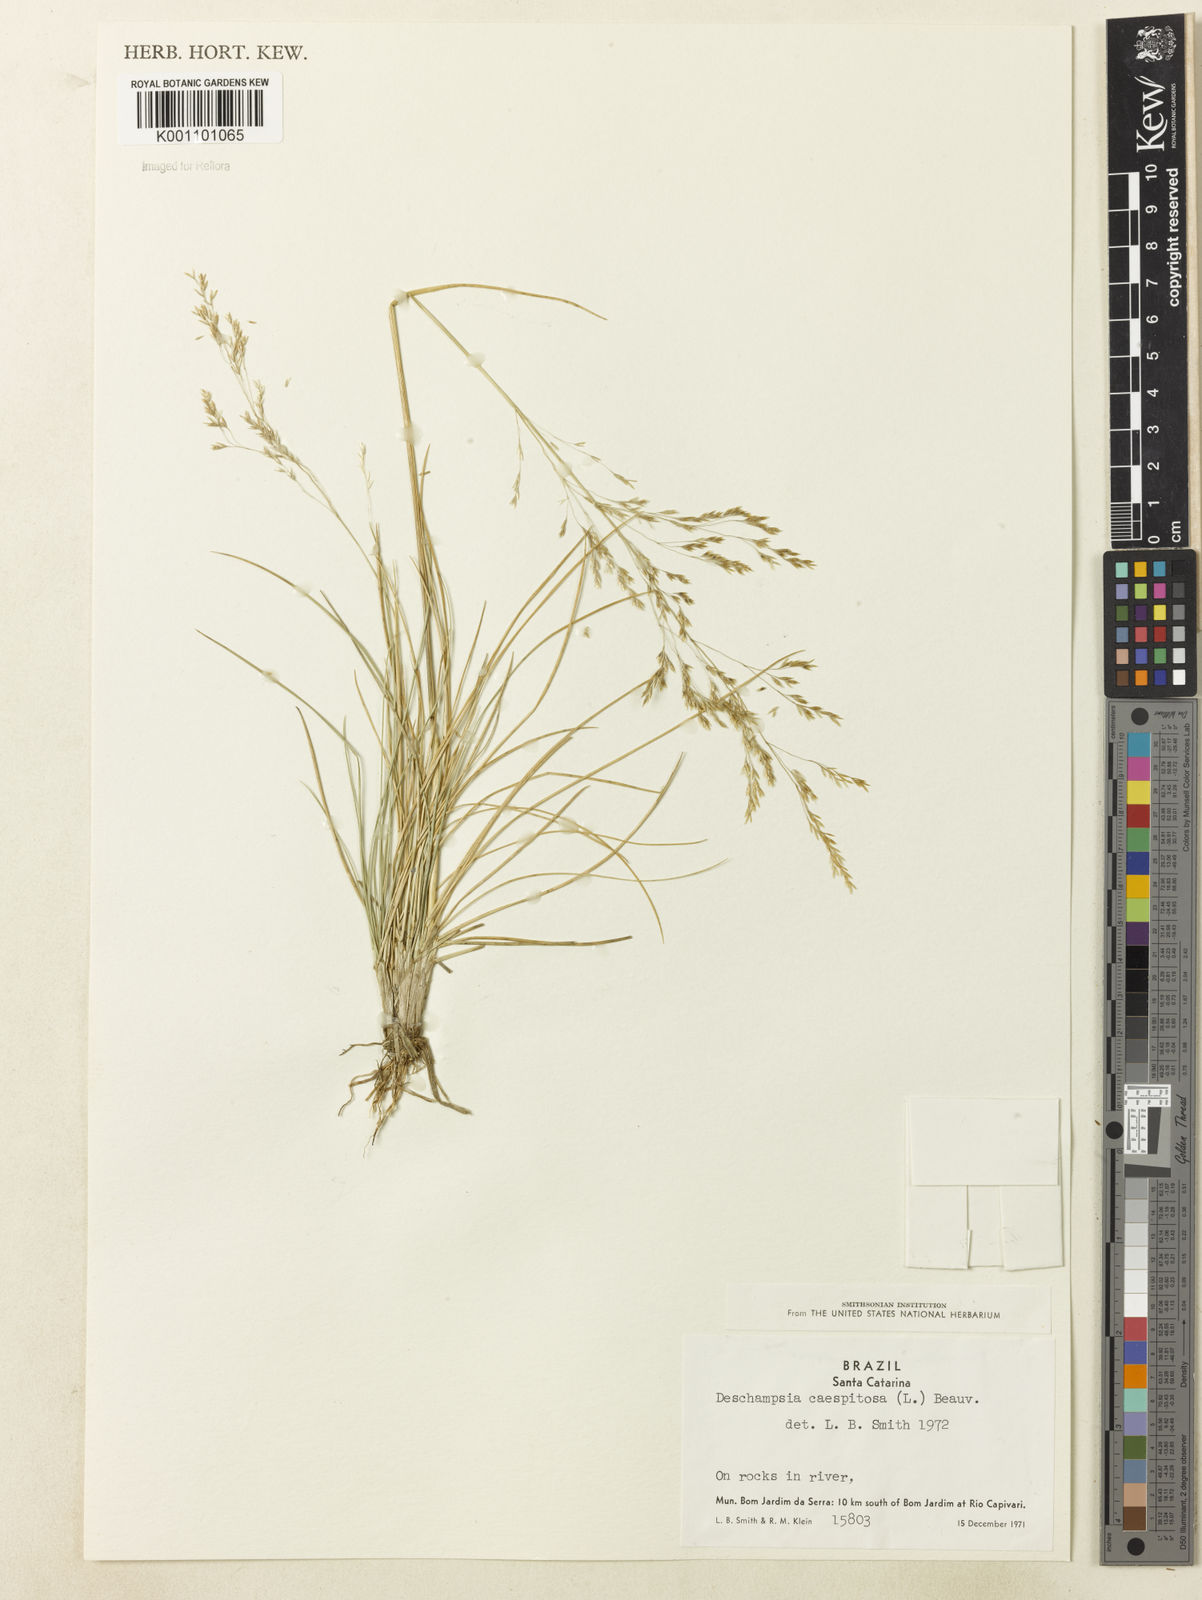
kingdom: Plantae
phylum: Tracheophyta
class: Liliopsida
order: Poales
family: Poaceae
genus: Deschampsia
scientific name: Deschampsia
